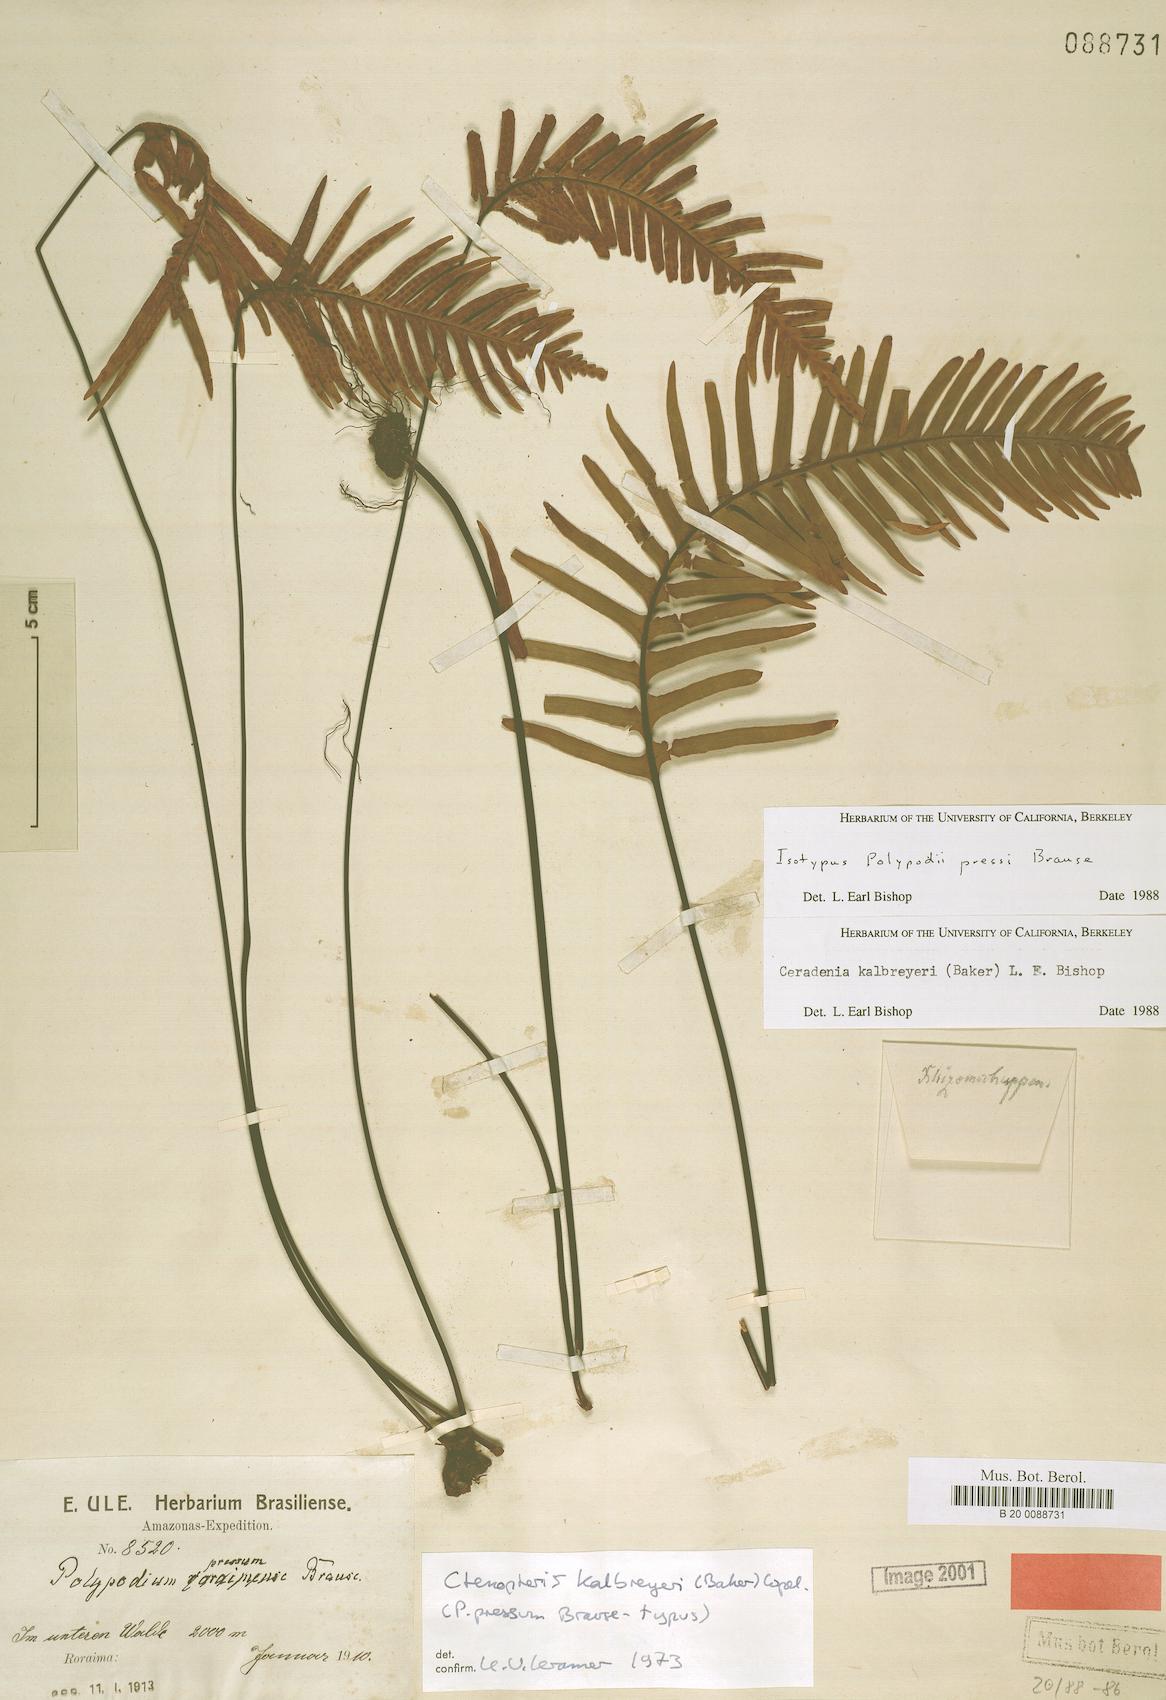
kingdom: Plantae
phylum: Tracheophyta
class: Polypodiopsida
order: Polypodiales
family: Polypodiaceae
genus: Ceradenia
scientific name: Ceradenia kalbreyeri
